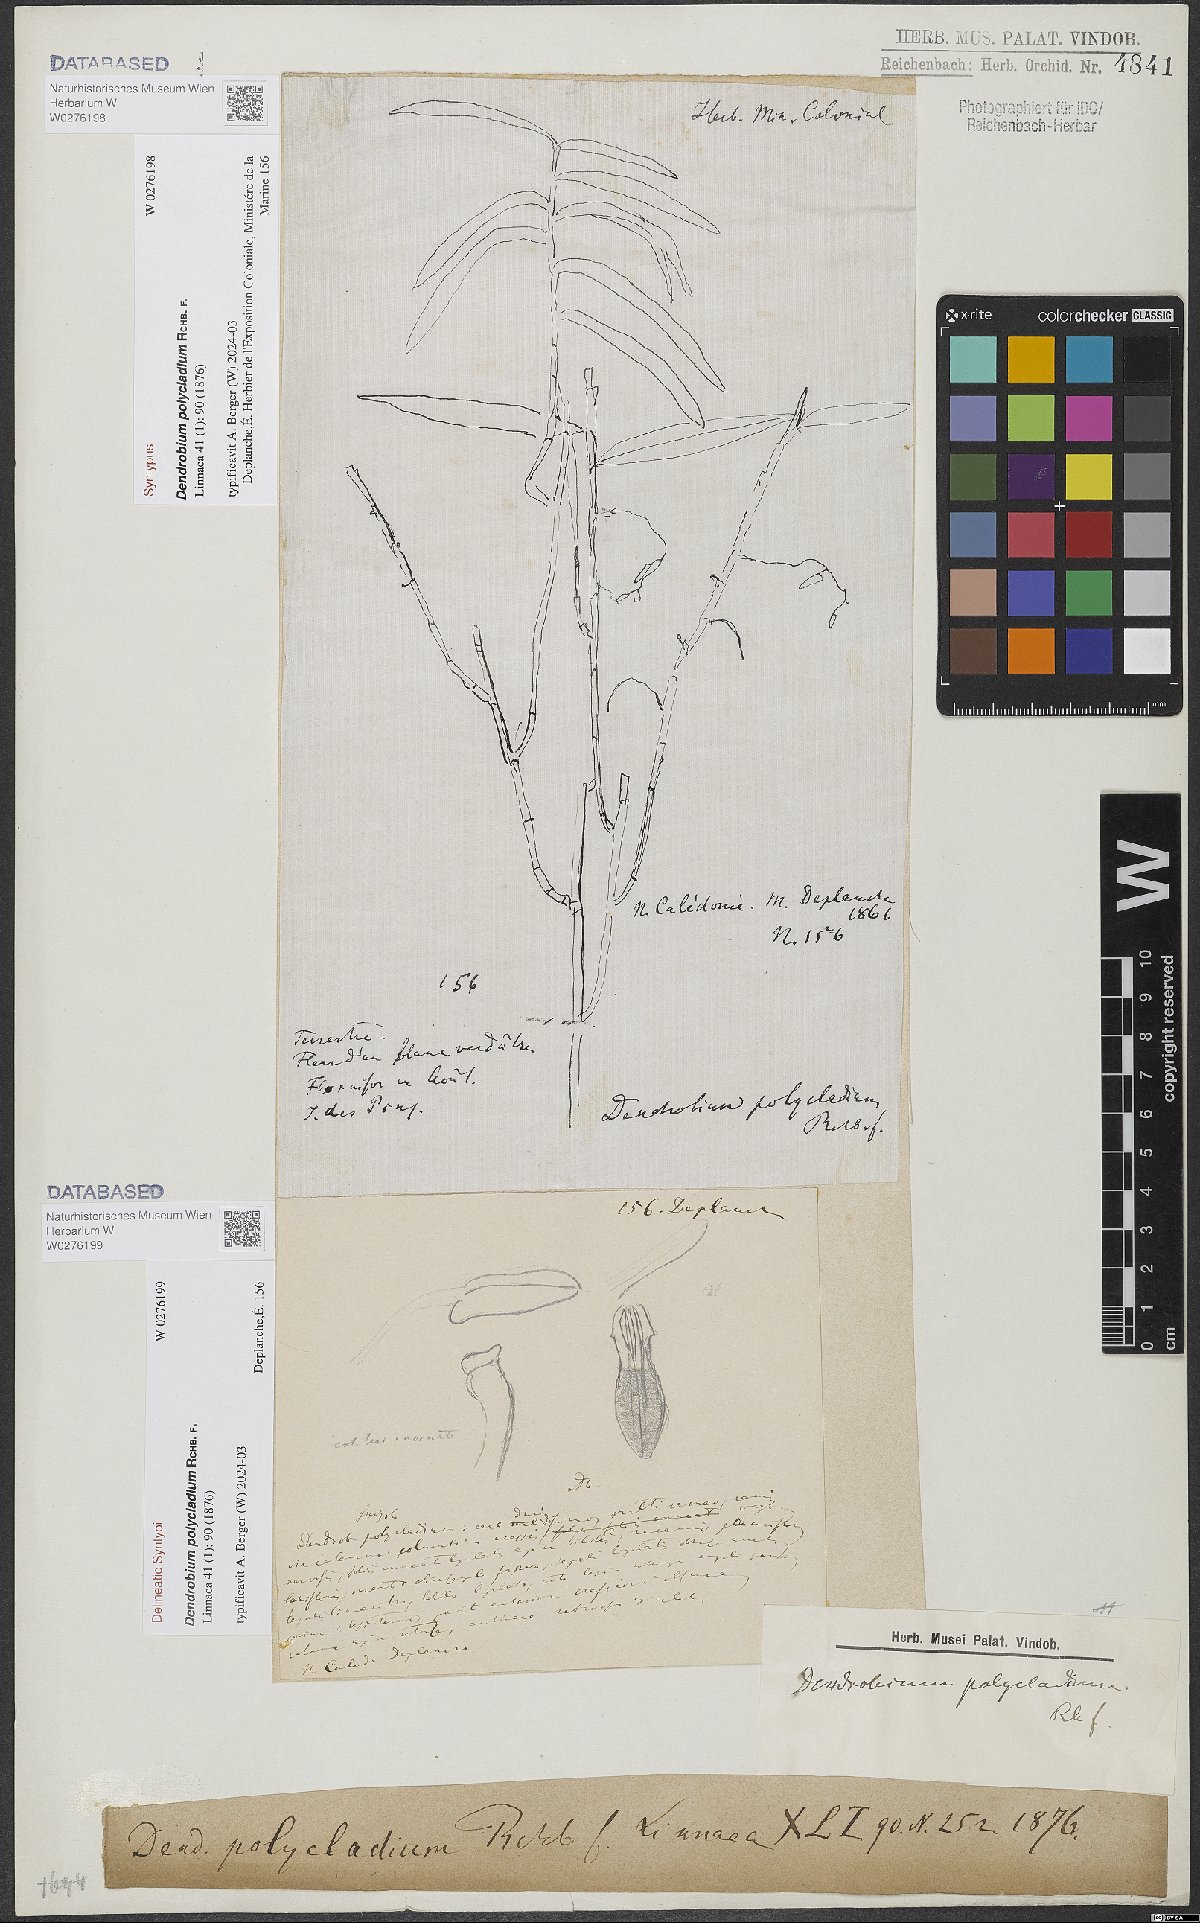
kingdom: Plantae
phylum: Tracheophyta
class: Liliopsida
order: Asparagales
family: Orchidaceae
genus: Dendrobium
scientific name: Dendrobium polycladium
